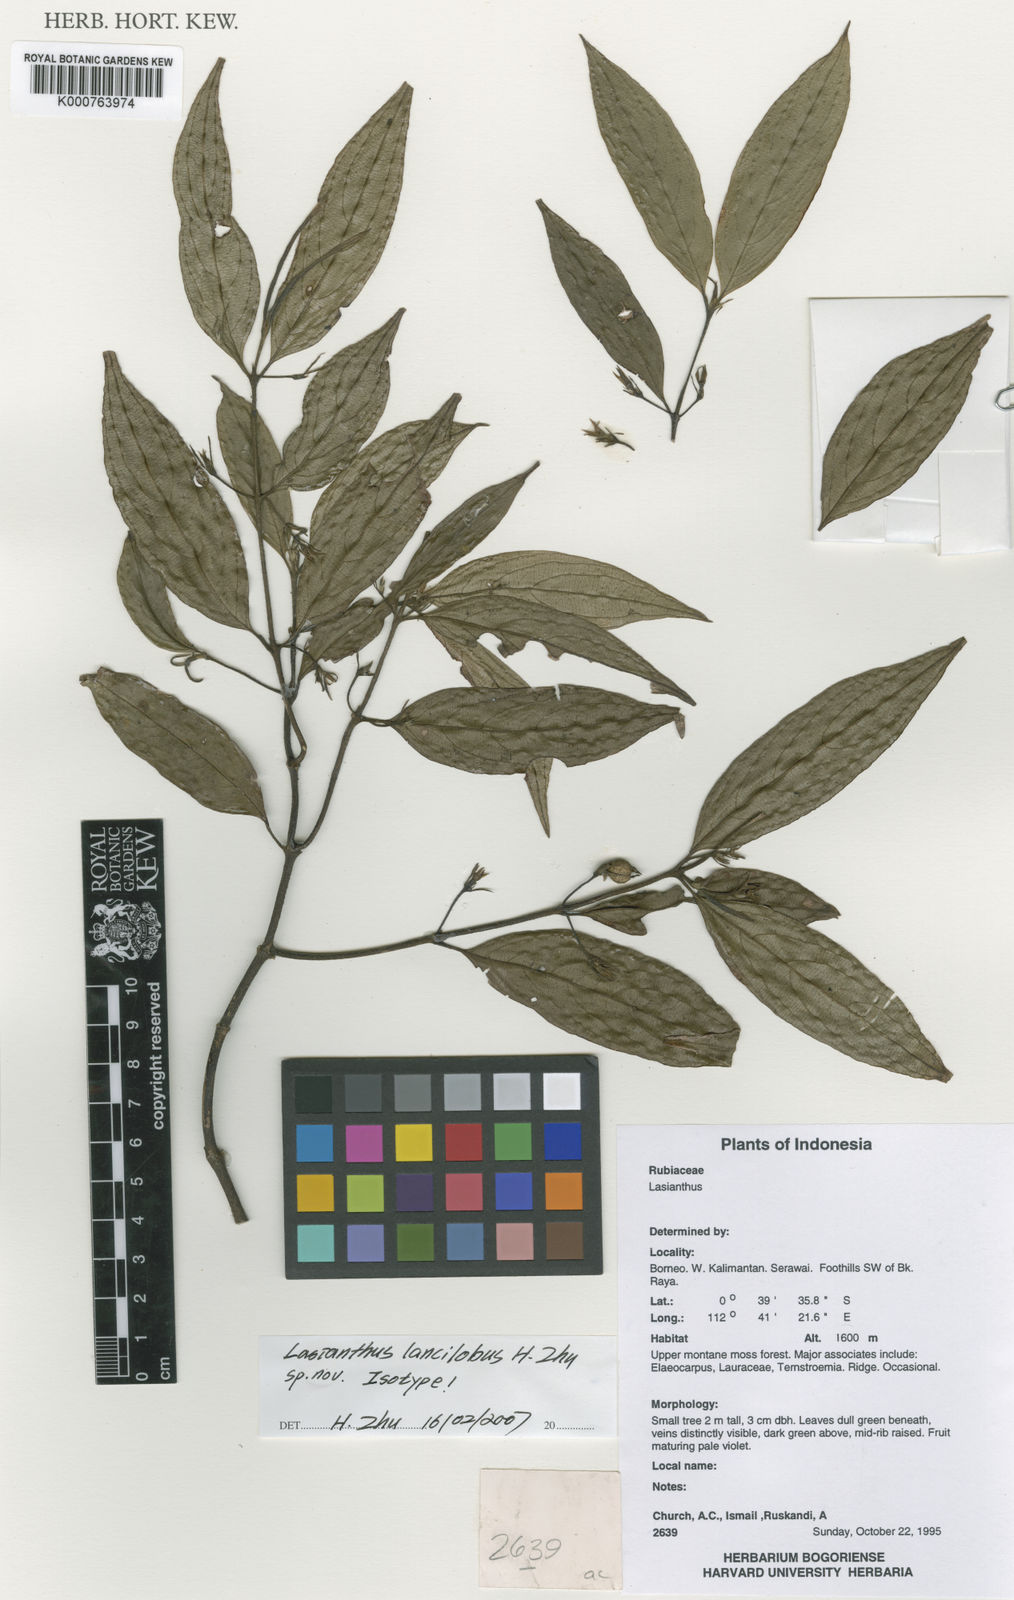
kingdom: Plantae
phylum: Tracheophyta
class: Magnoliopsida
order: Gentianales
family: Rubiaceae
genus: Lasianthus
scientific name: Lasianthus lancilobus
